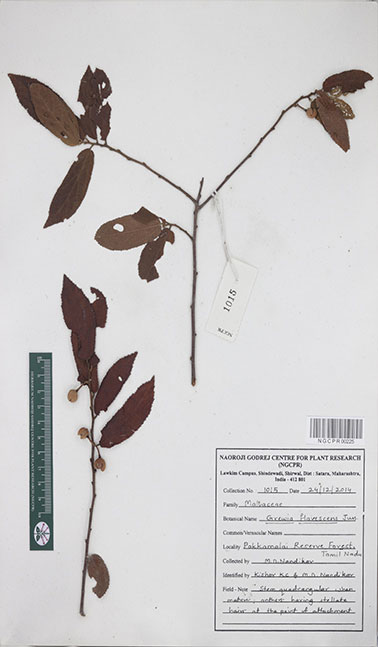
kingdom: Plantae
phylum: Tracheophyta
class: Magnoliopsida
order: Malvales
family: Malvaceae
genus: Grewia
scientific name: Grewia flavescens
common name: Sandpaper raisin
